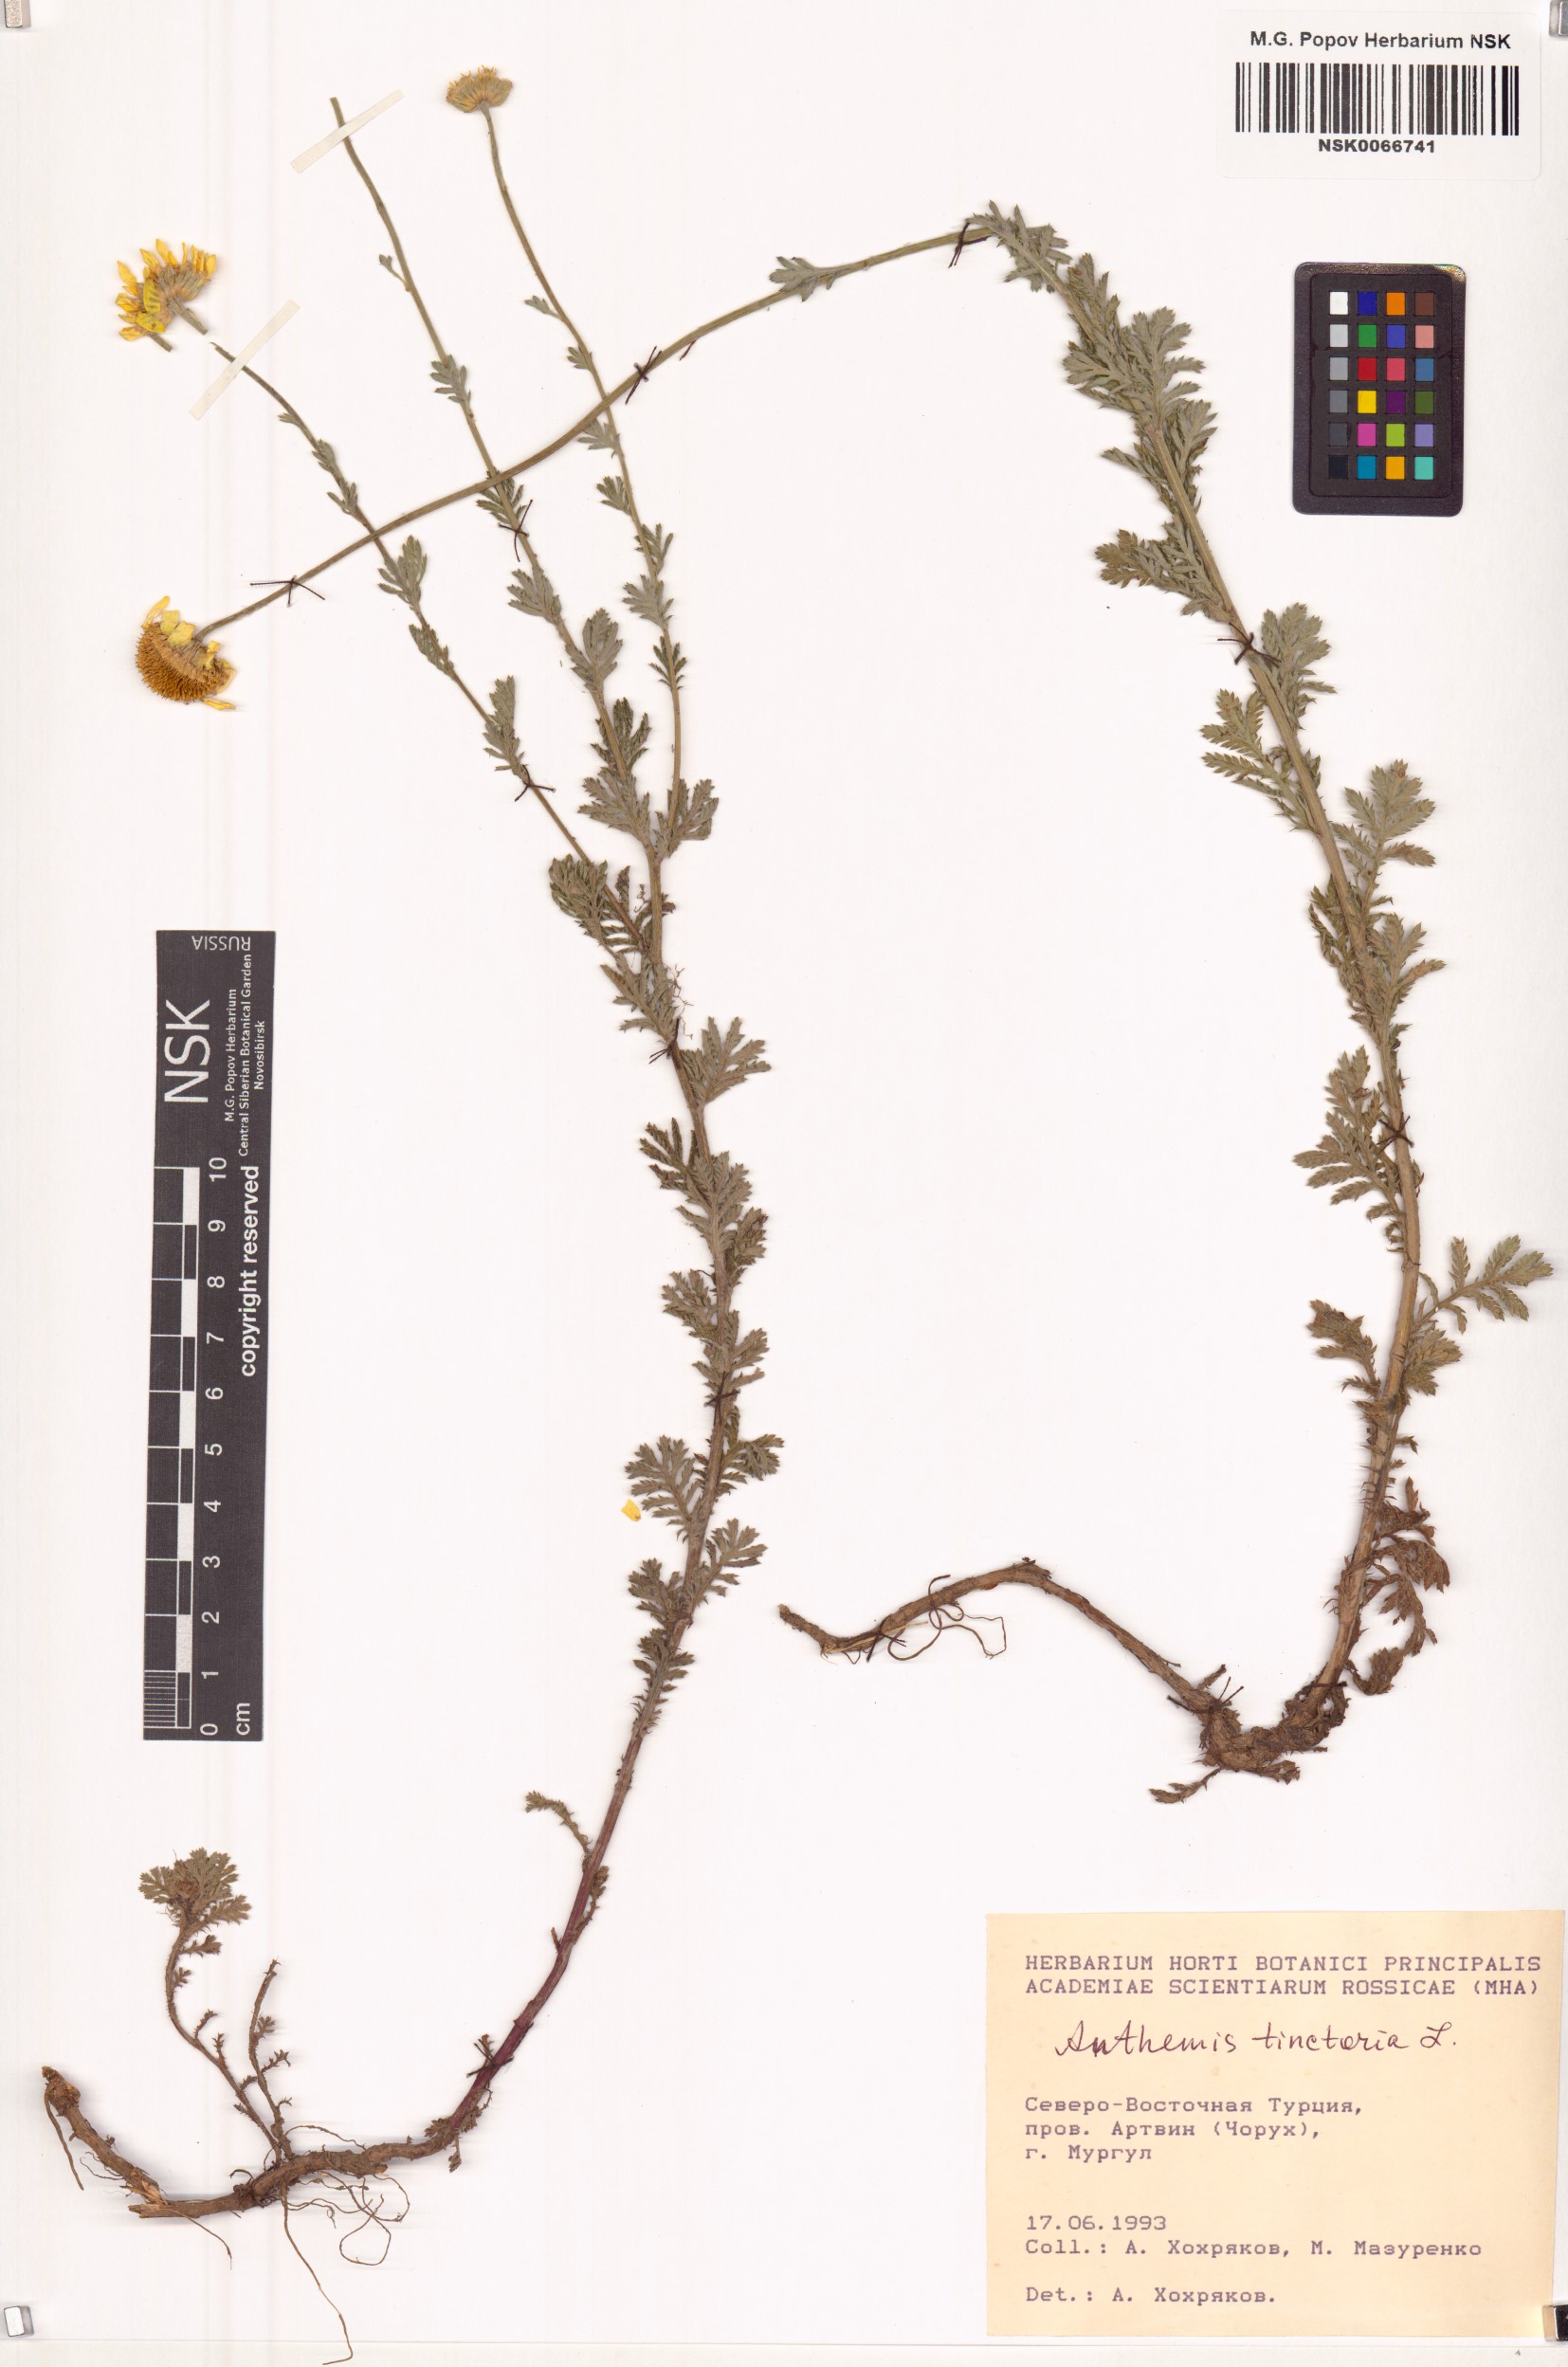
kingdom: Plantae
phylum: Tracheophyta
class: Magnoliopsida
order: Asterales
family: Asteraceae
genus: Cota
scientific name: Cota tinctoria
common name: Golden chamomile
